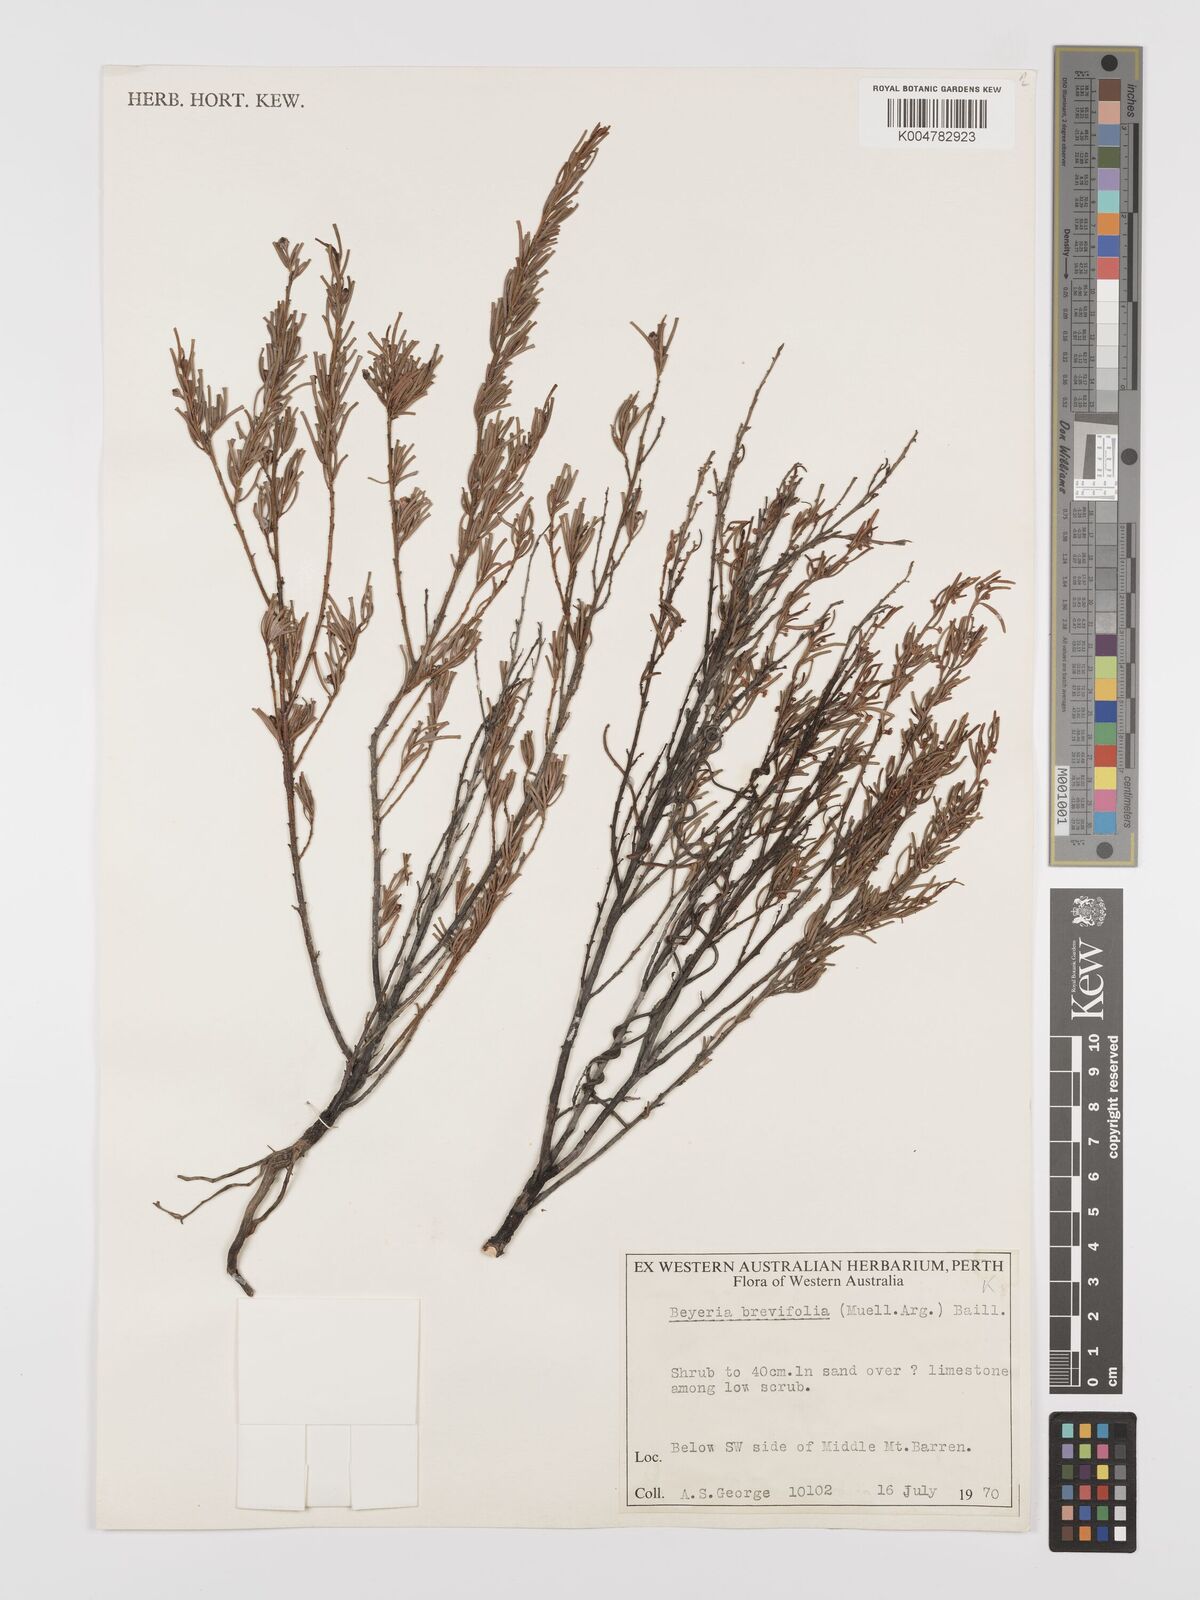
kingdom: Plantae
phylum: Tracheophyta
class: Magnoliopsida
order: Malpighiales
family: Euphorbiaceae
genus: Beyeria
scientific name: Beyeria sulcata
